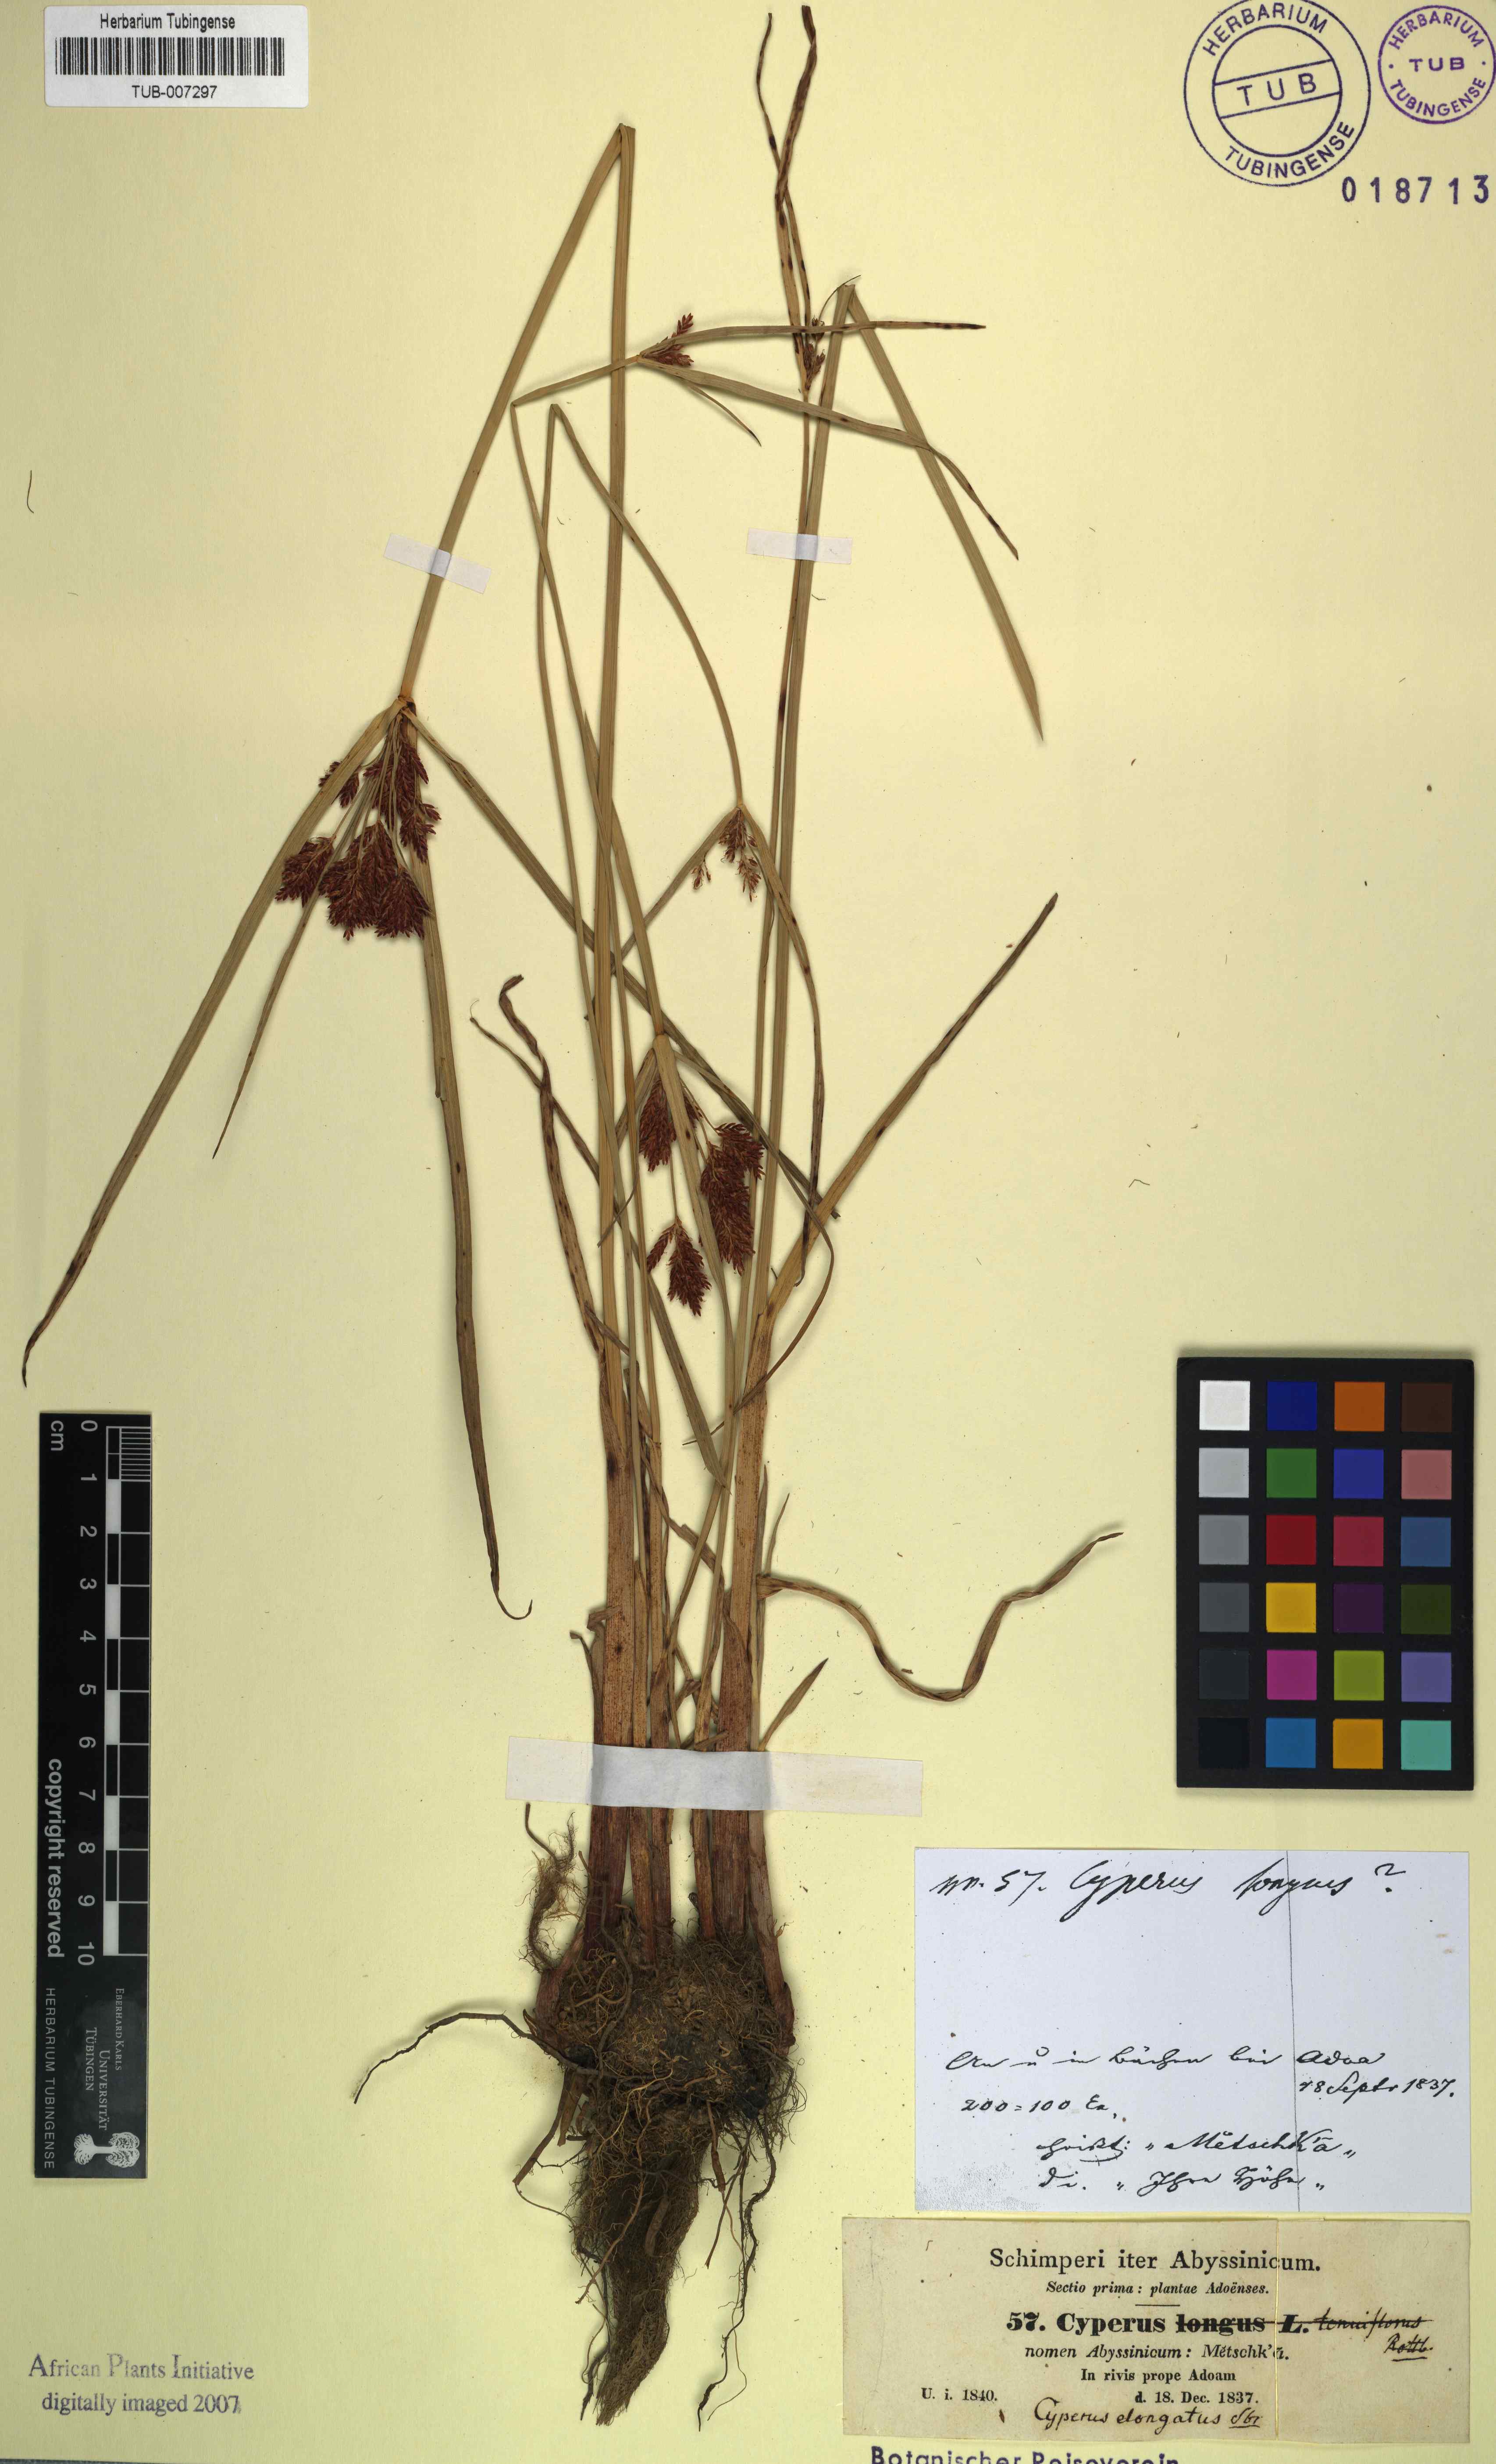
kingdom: Plantae
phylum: Tracheophyta
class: Liliopsida
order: Poales
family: Cyperaceae
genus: Cyperus
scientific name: Cyperus rotundus
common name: Nutgrass
